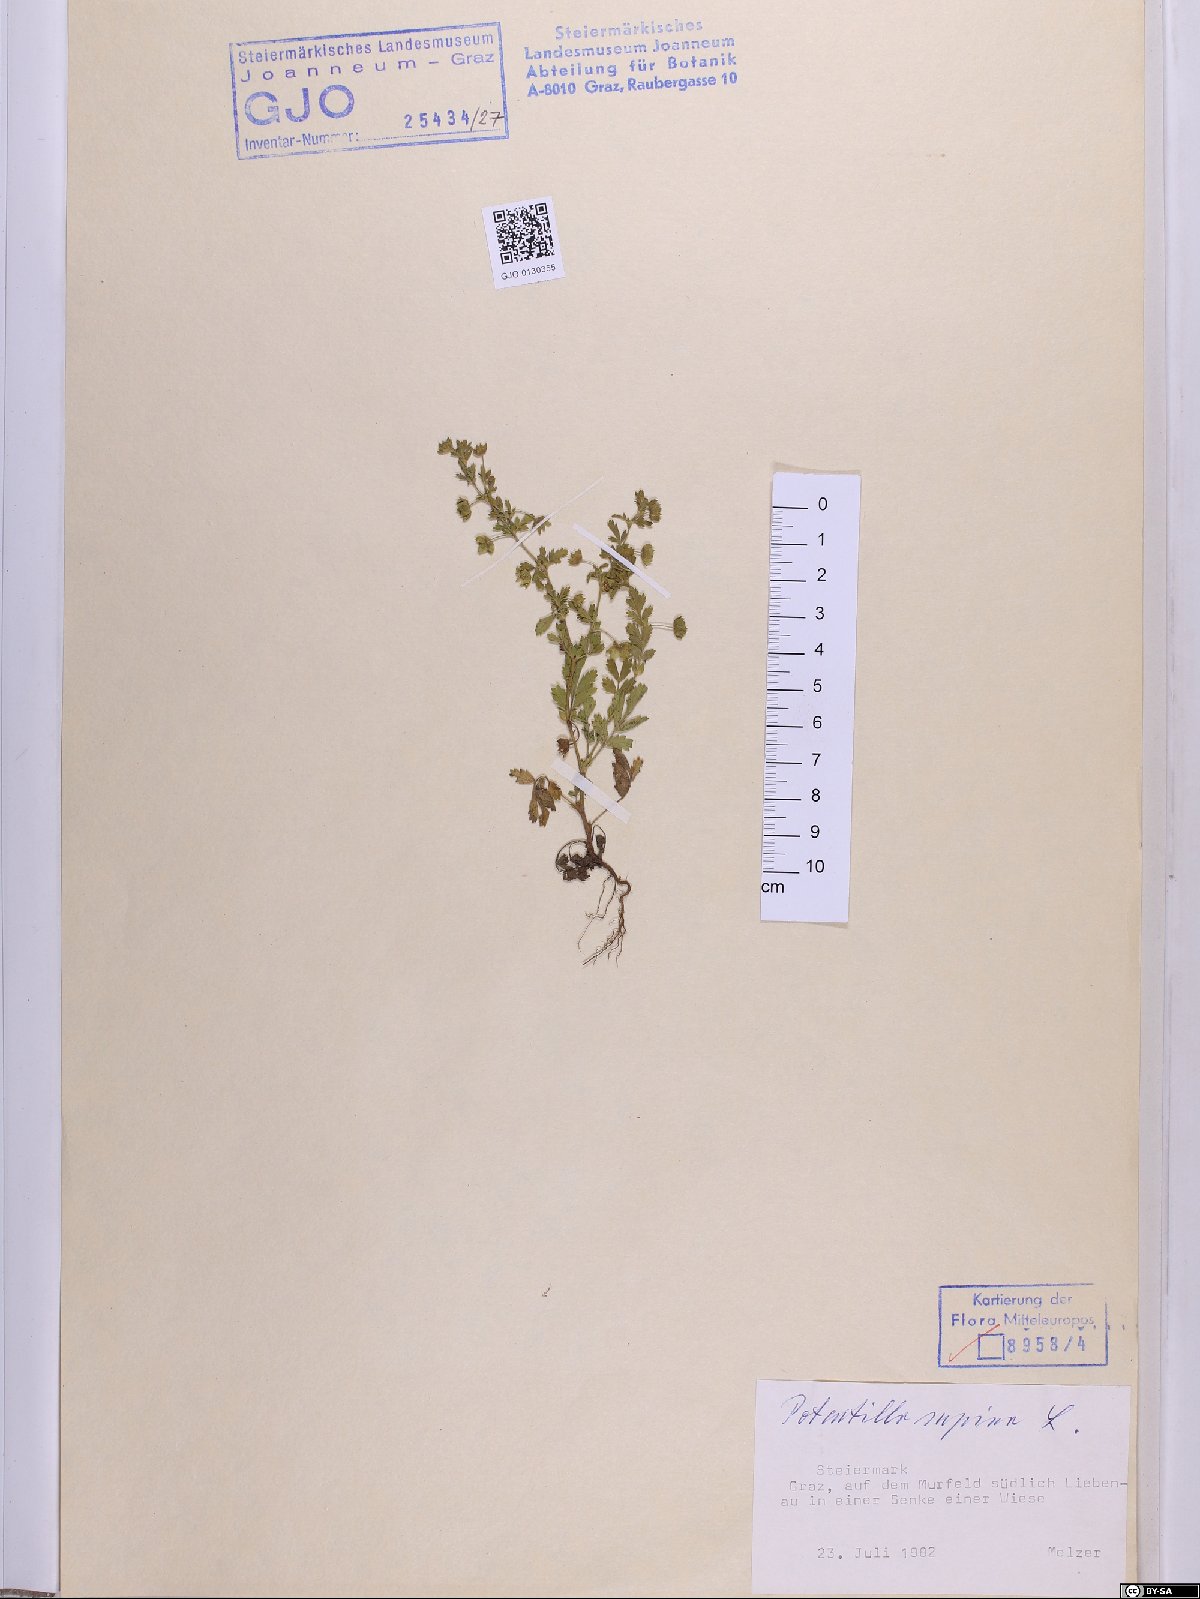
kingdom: Plantae
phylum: Tracheophyta
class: Magnoliopsida
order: Rosales
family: Rosaceae
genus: Potentilla
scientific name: Potentilla supina
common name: Prostrate cinquefoil
